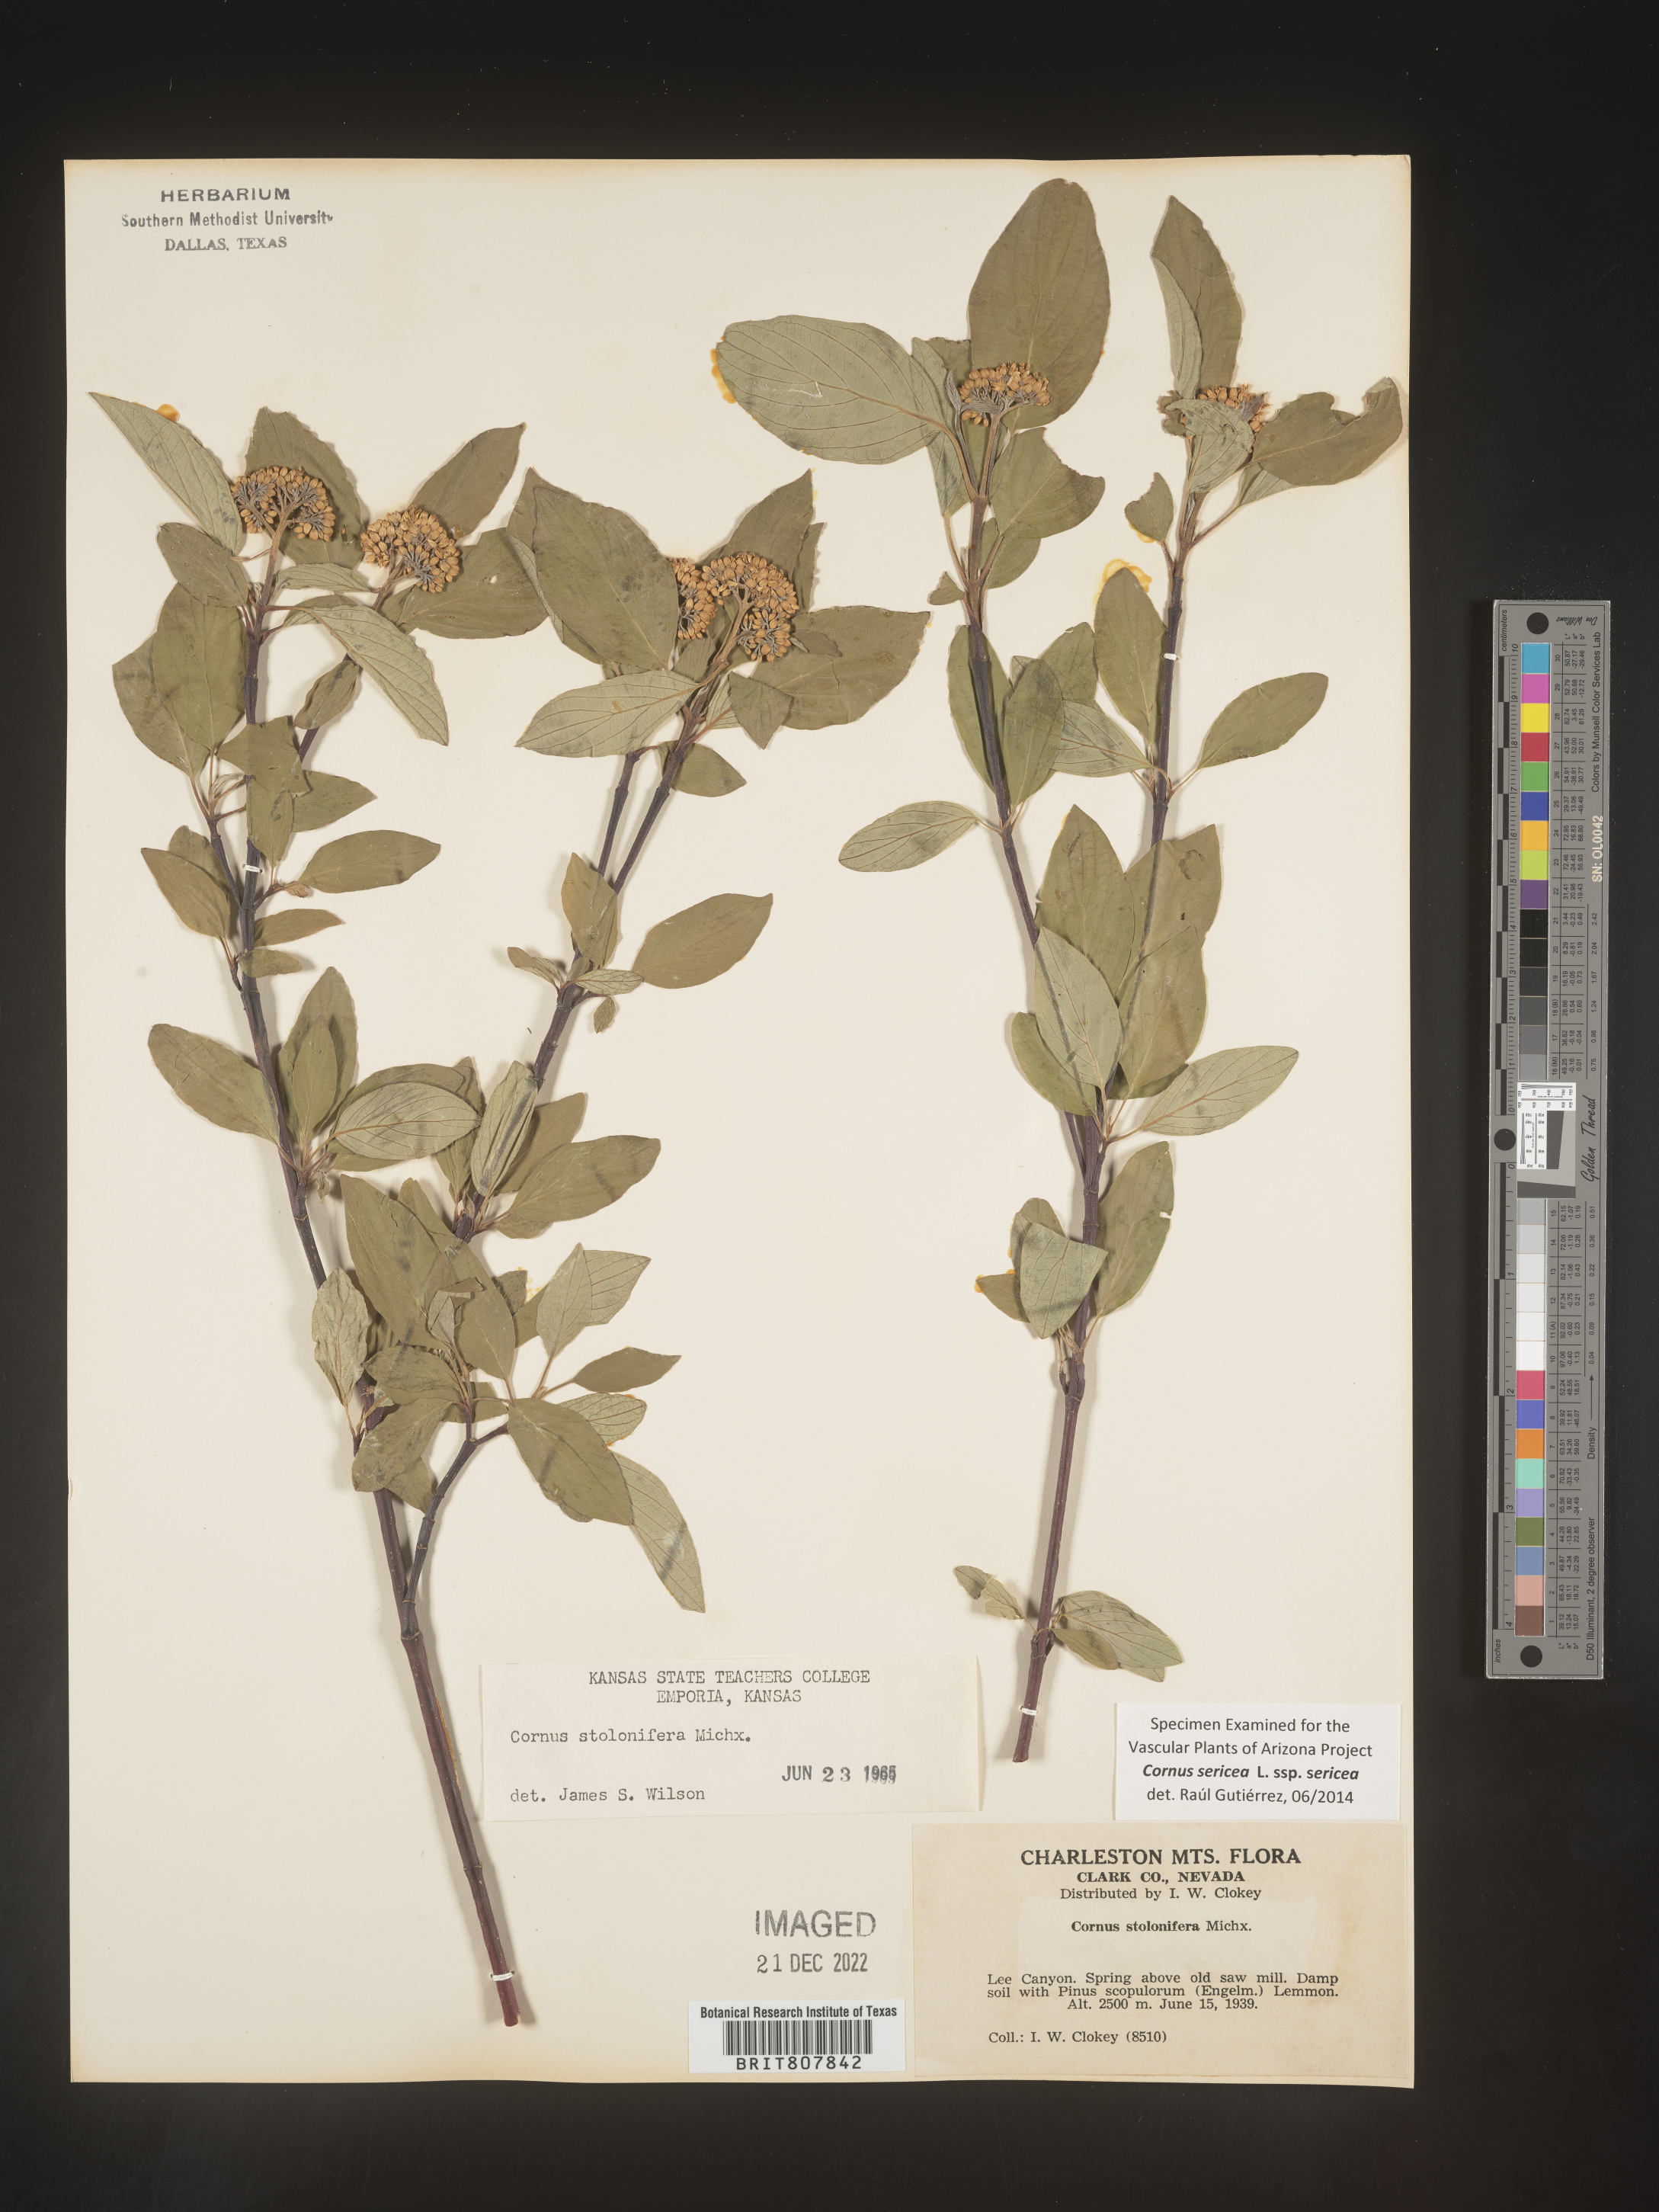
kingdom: Plantae
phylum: Tracheophyta
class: Magnoliopsida
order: Cornales
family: Cornaceae
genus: Cornus
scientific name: Cornus
